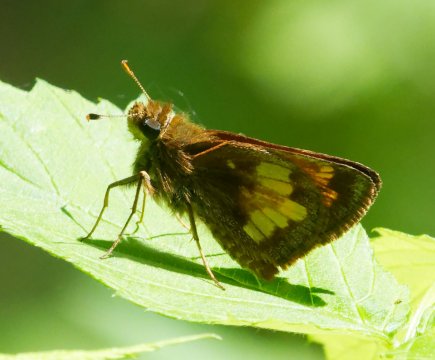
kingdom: Animalia
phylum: Arthropoda
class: Insecta
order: Lepidoptera
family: Hesperiidae
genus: Lon
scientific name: Lon hobomok
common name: Hobomok Skipper
